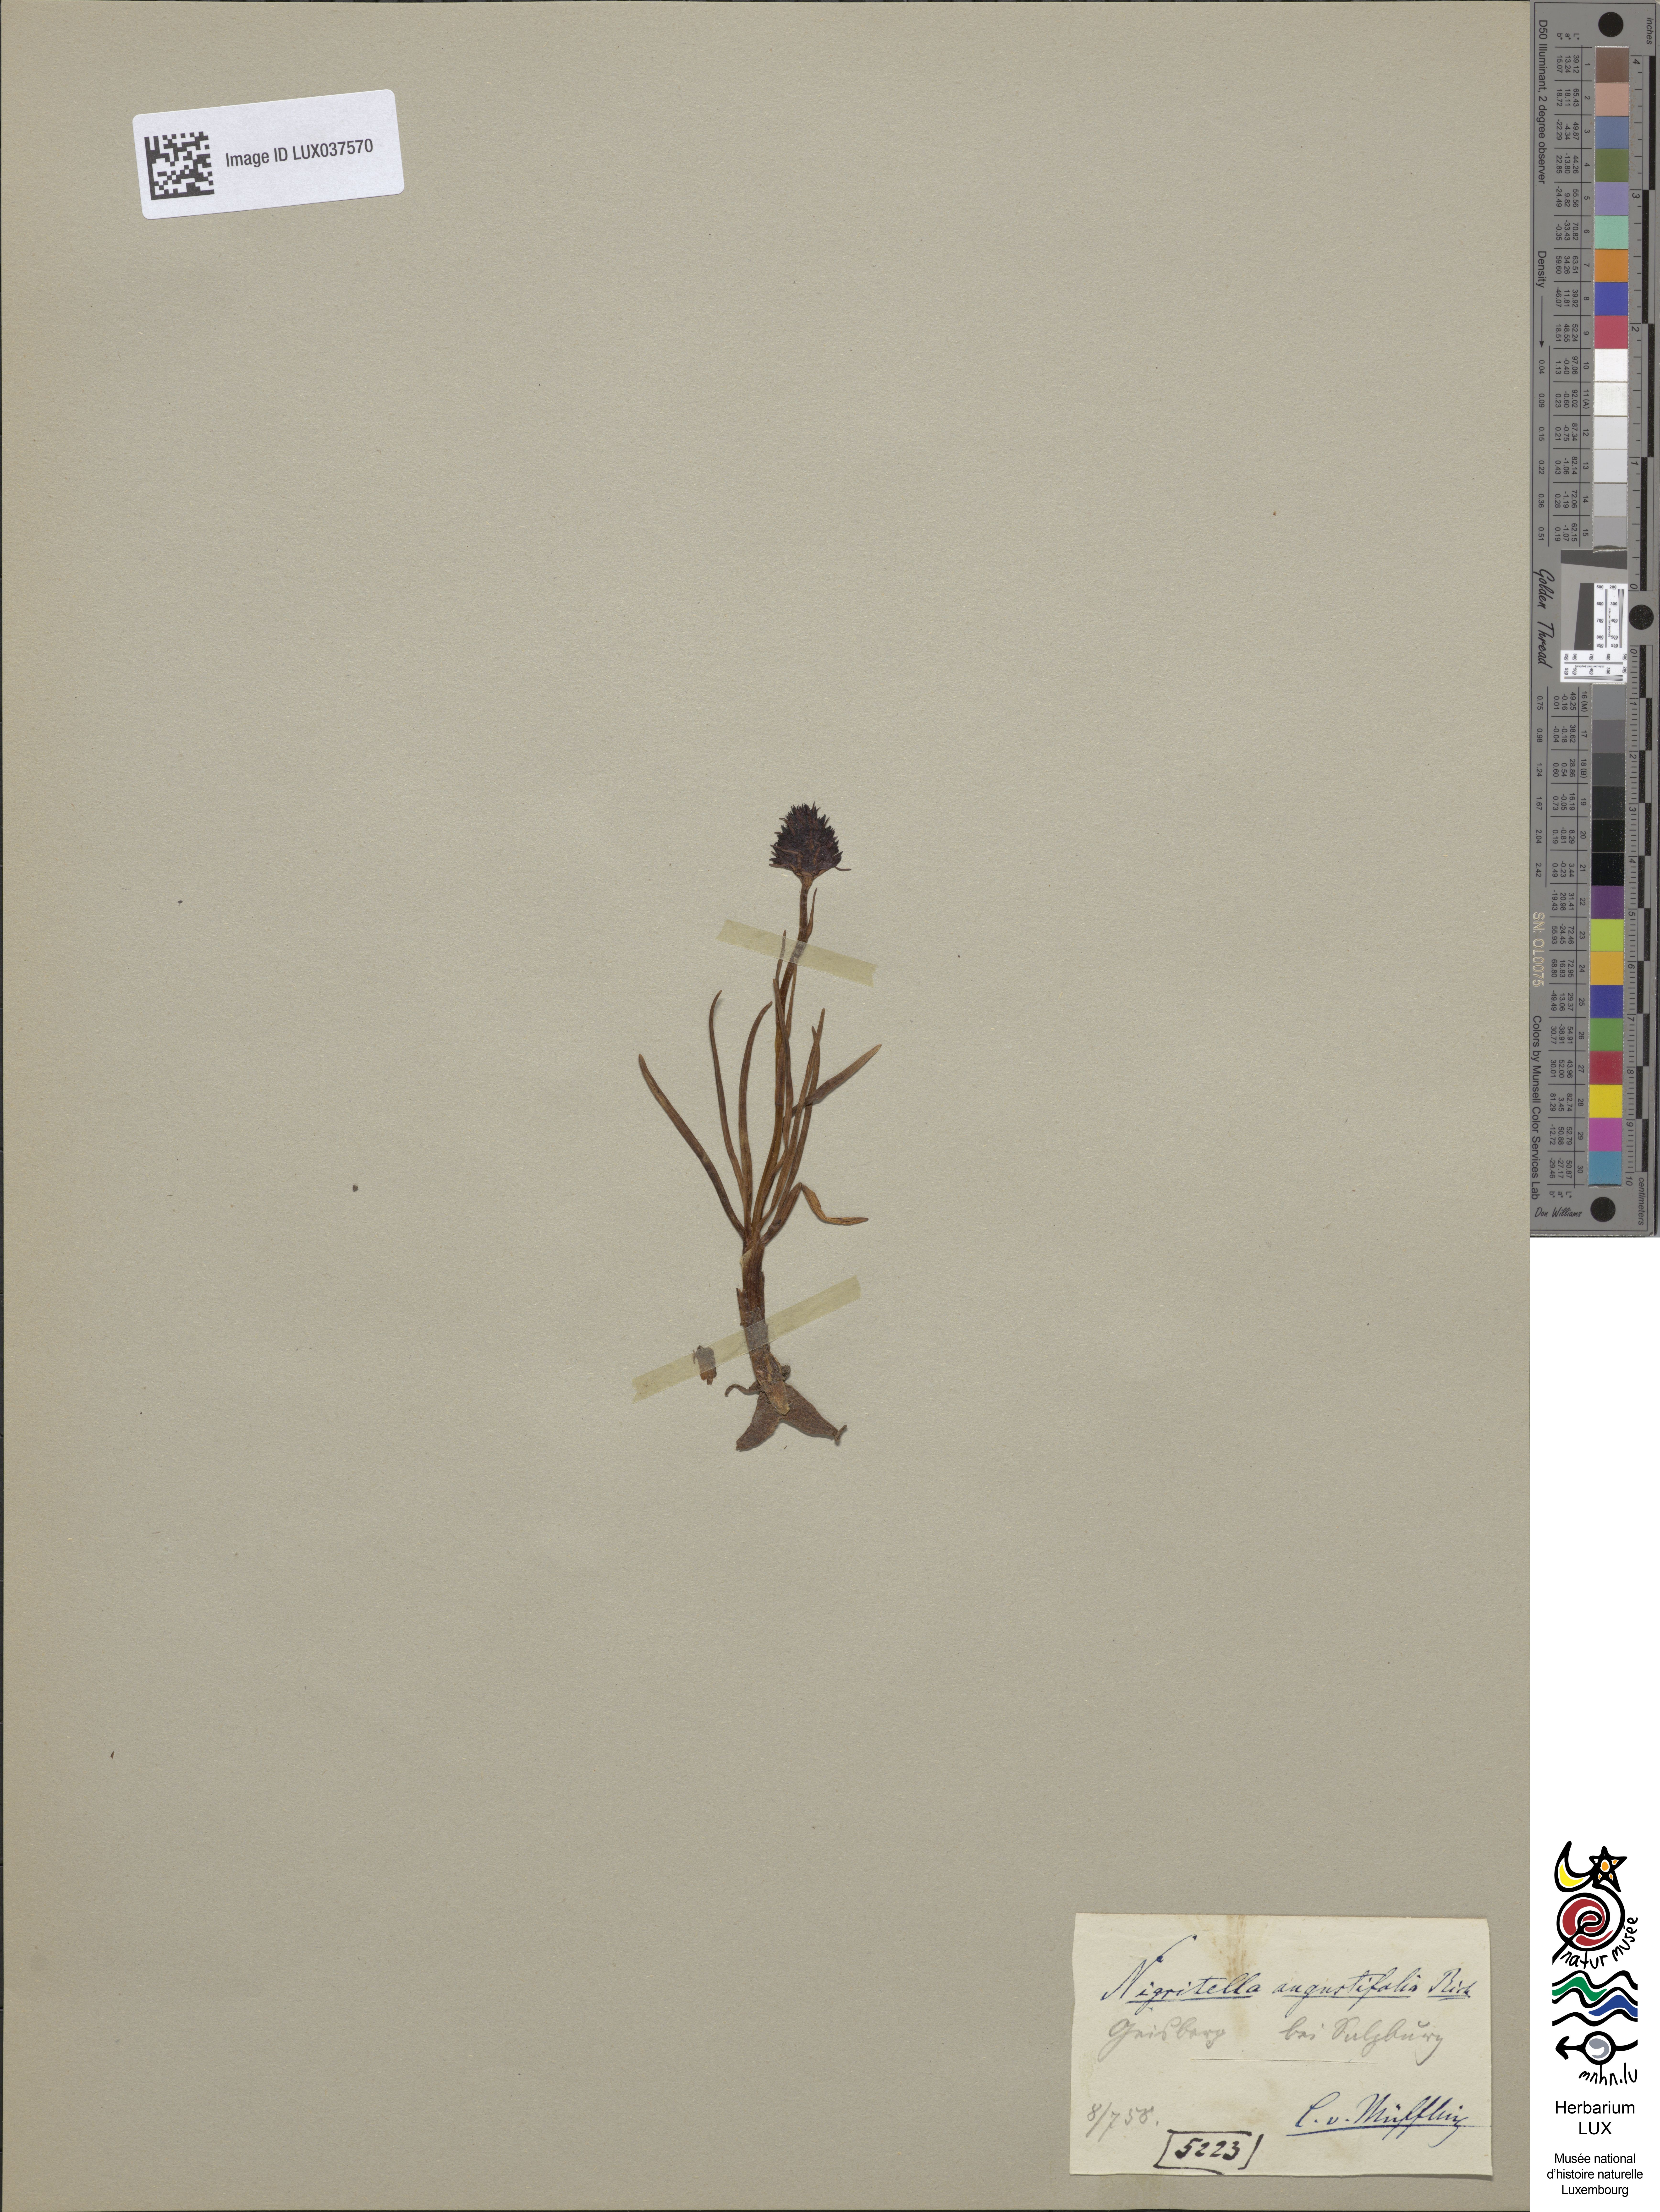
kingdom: Plantae
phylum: Tracheophyta
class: Liliopsida
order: Asparagales
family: Orchidaceae
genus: Gymnadenia
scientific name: Gymnadenia nigra
